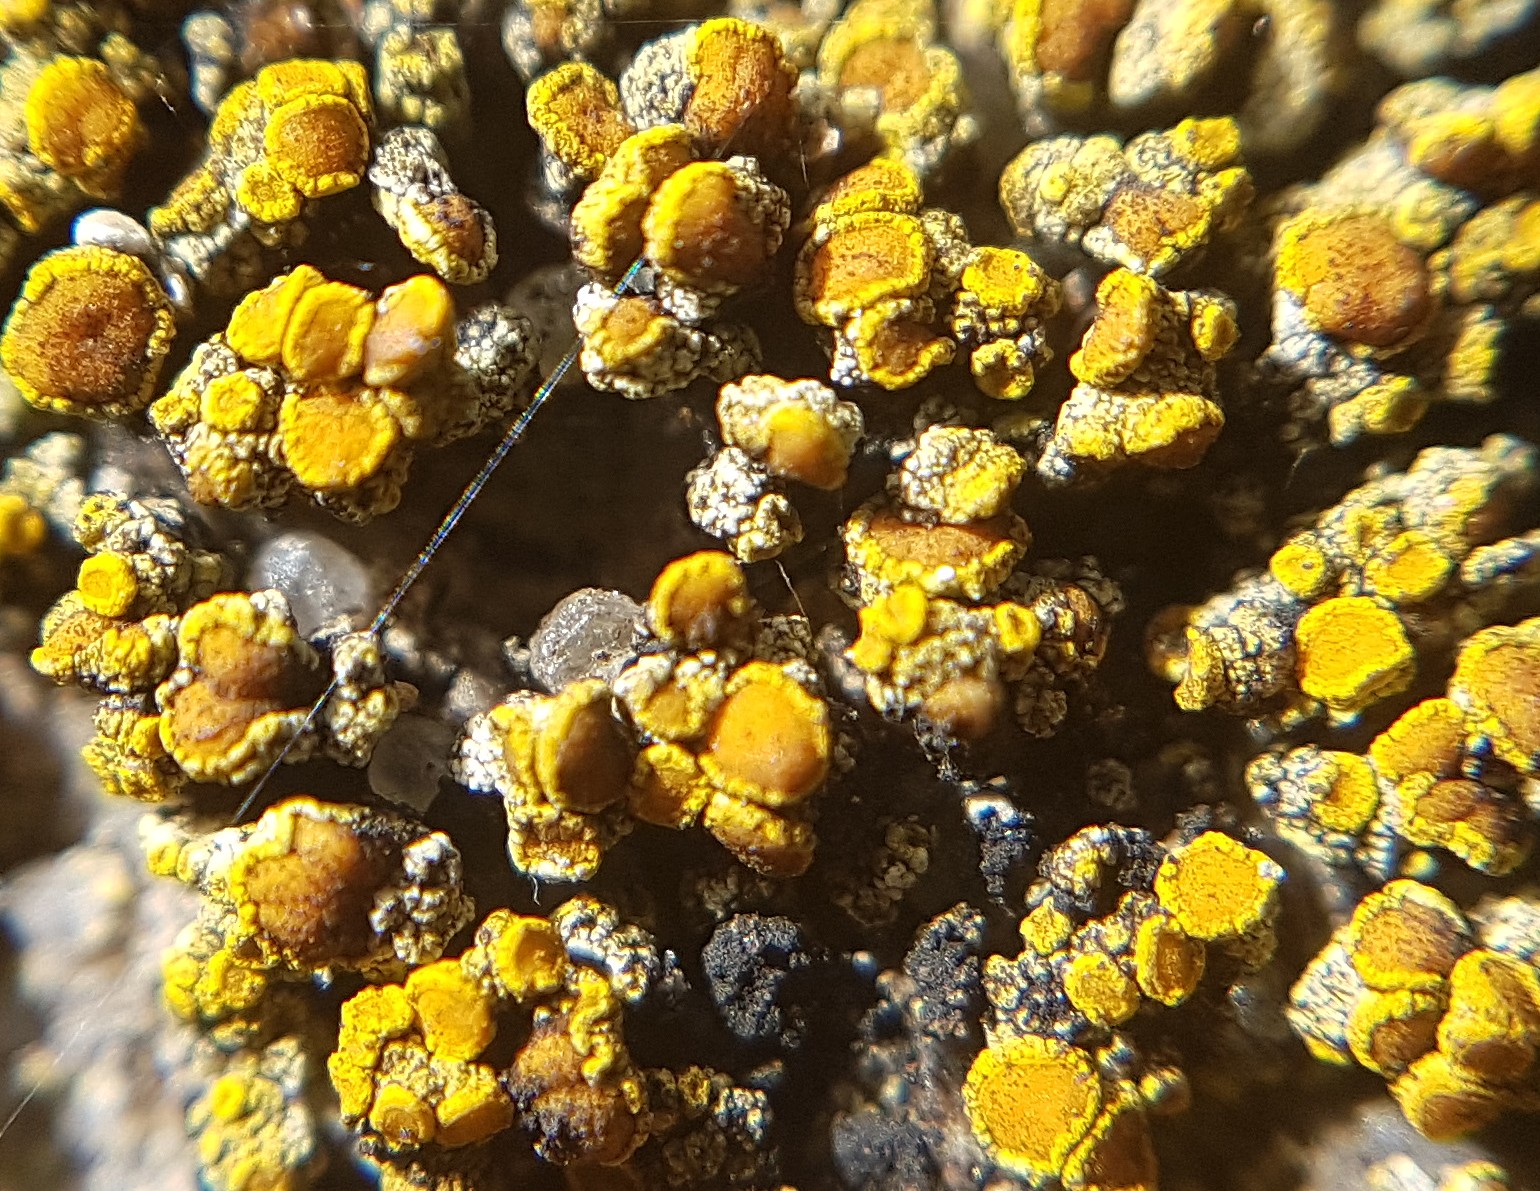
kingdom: Fungi
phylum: Ascomycota
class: Lecanoromycetes
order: Teloschistales
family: Teloschistaceae
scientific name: Teloschistaceae
